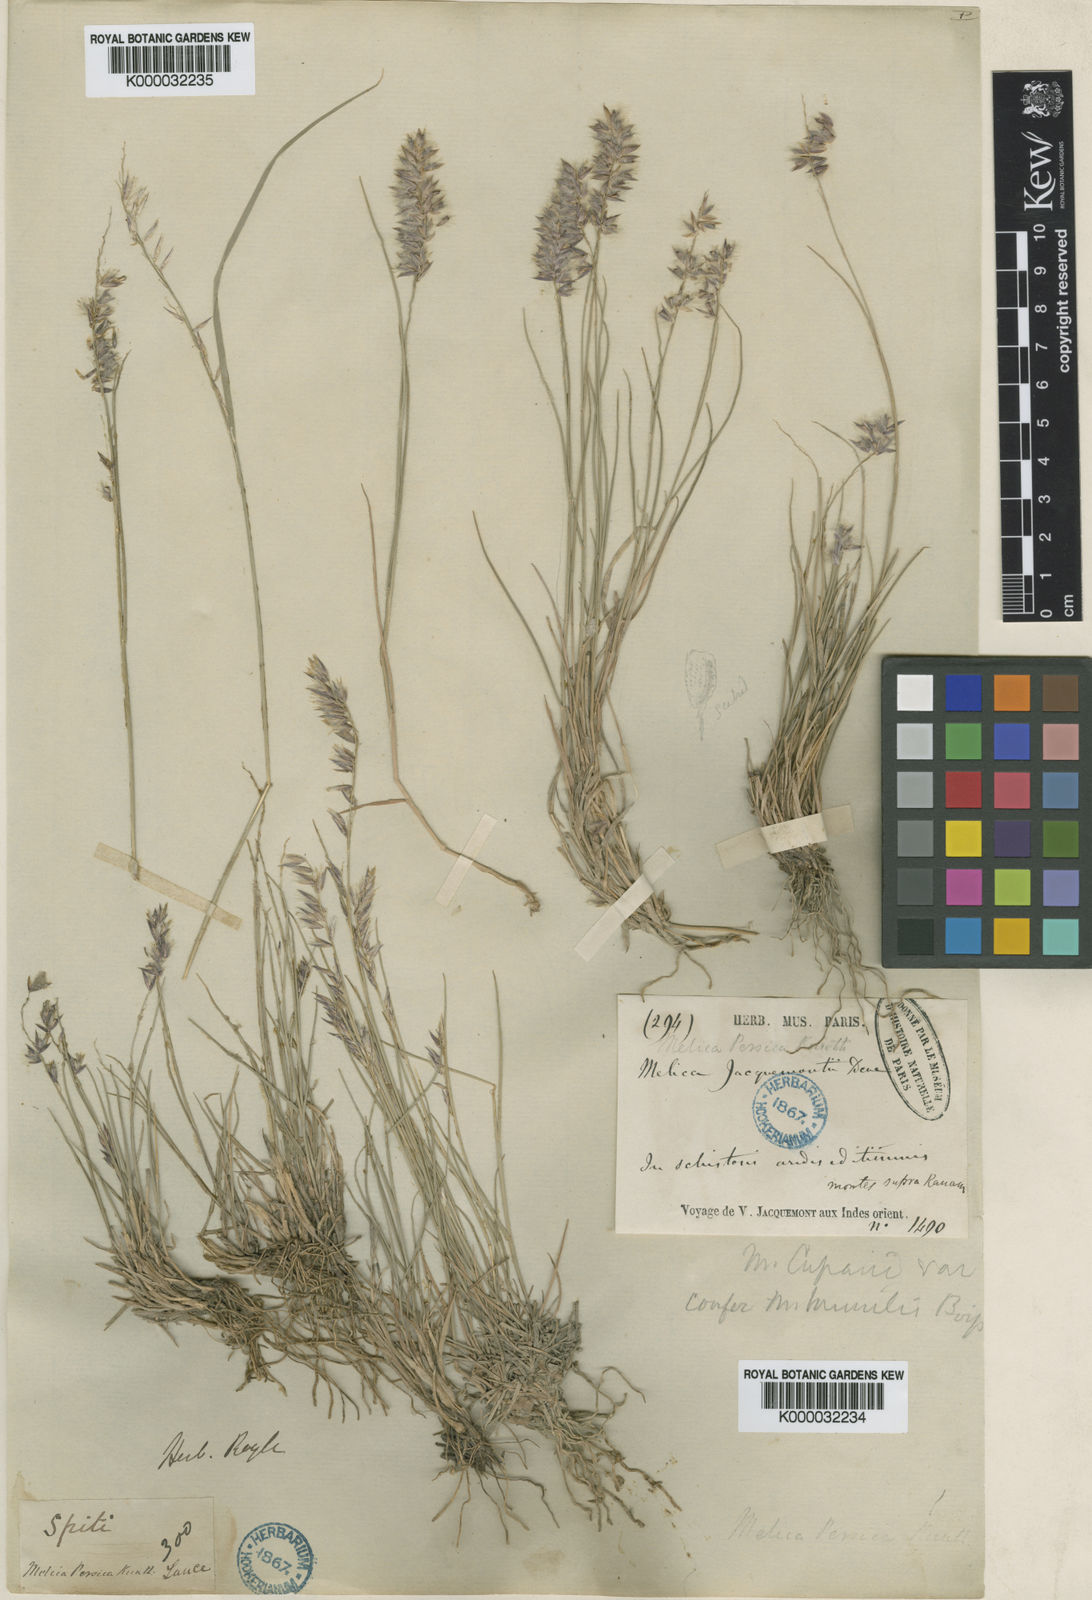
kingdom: Plantae
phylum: Tracheophyta
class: Liliopsida
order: Poales
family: Poaceae
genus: Melica
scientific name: Melica persica
